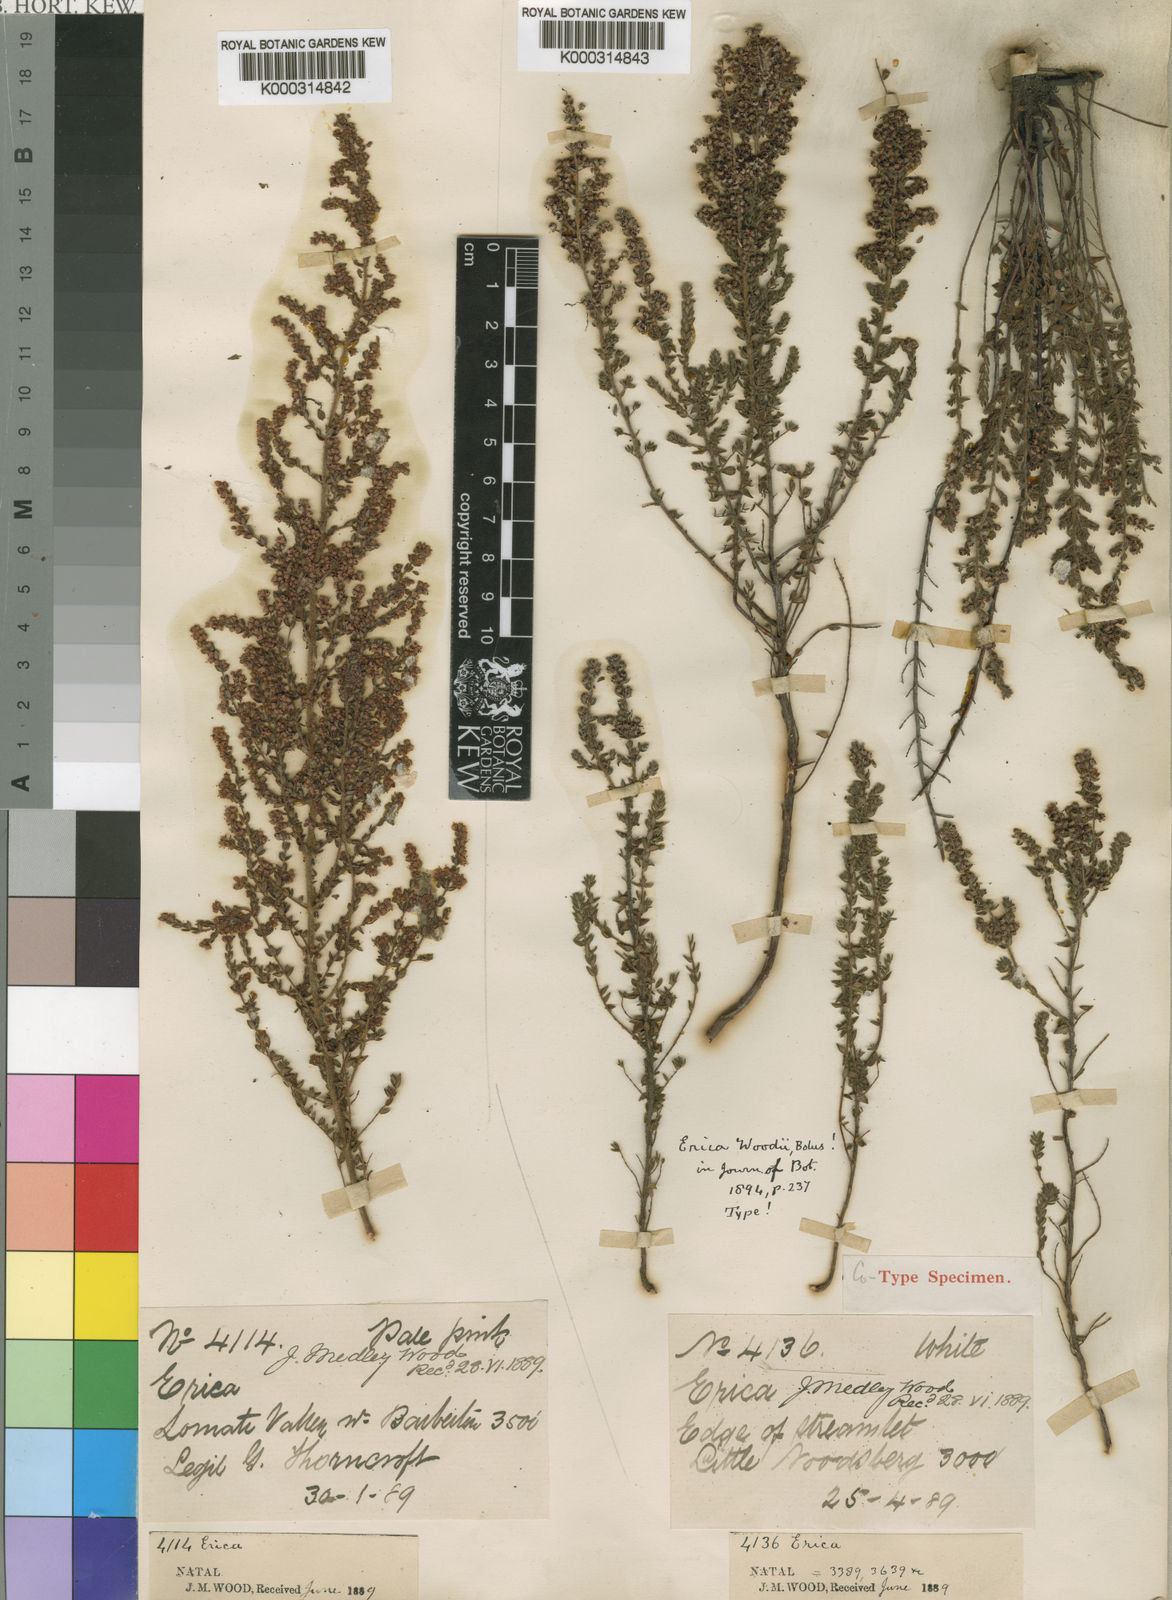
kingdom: Plantae
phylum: Tracheophyta
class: Magnoliopsida
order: Ericales
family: Ericaceae
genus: Erica
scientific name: Erica woodii
